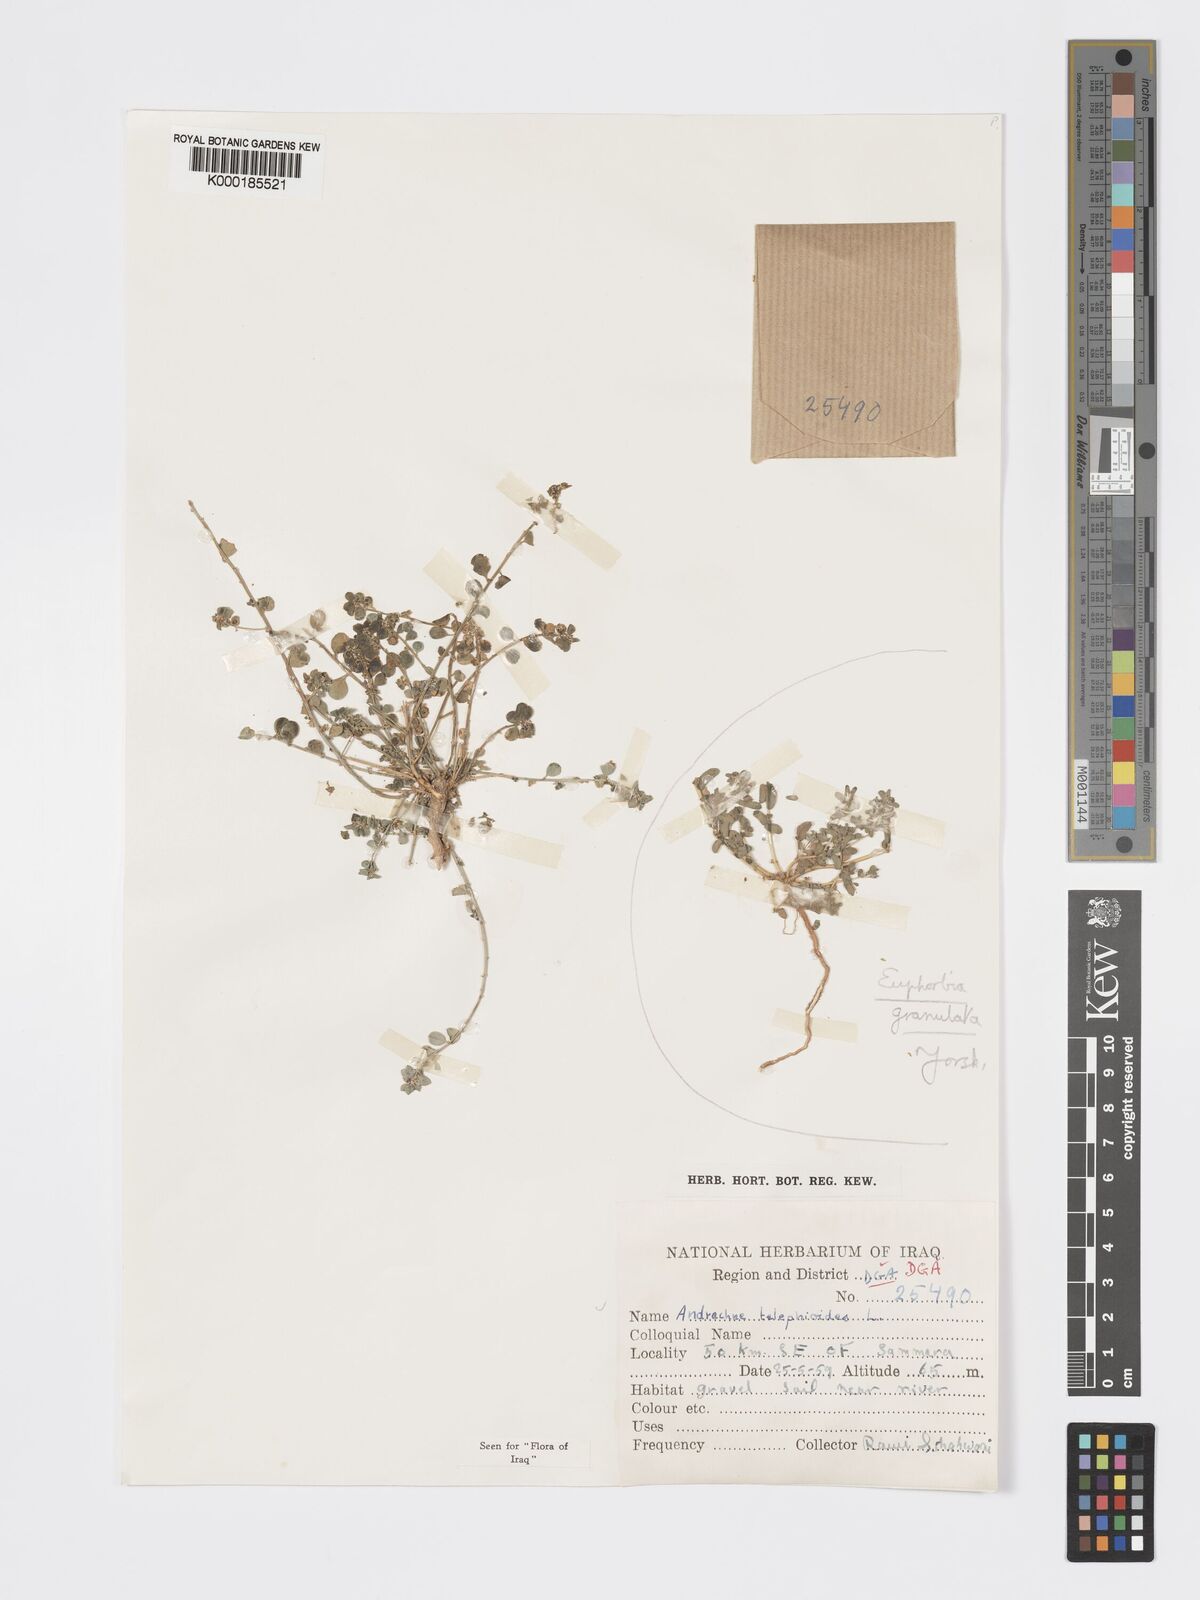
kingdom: Plantae
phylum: Tracheophyta
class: Magnoliopsida
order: Malpighiales
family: Phyllanthaceae
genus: Andrachne
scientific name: Andrachne telephioides
